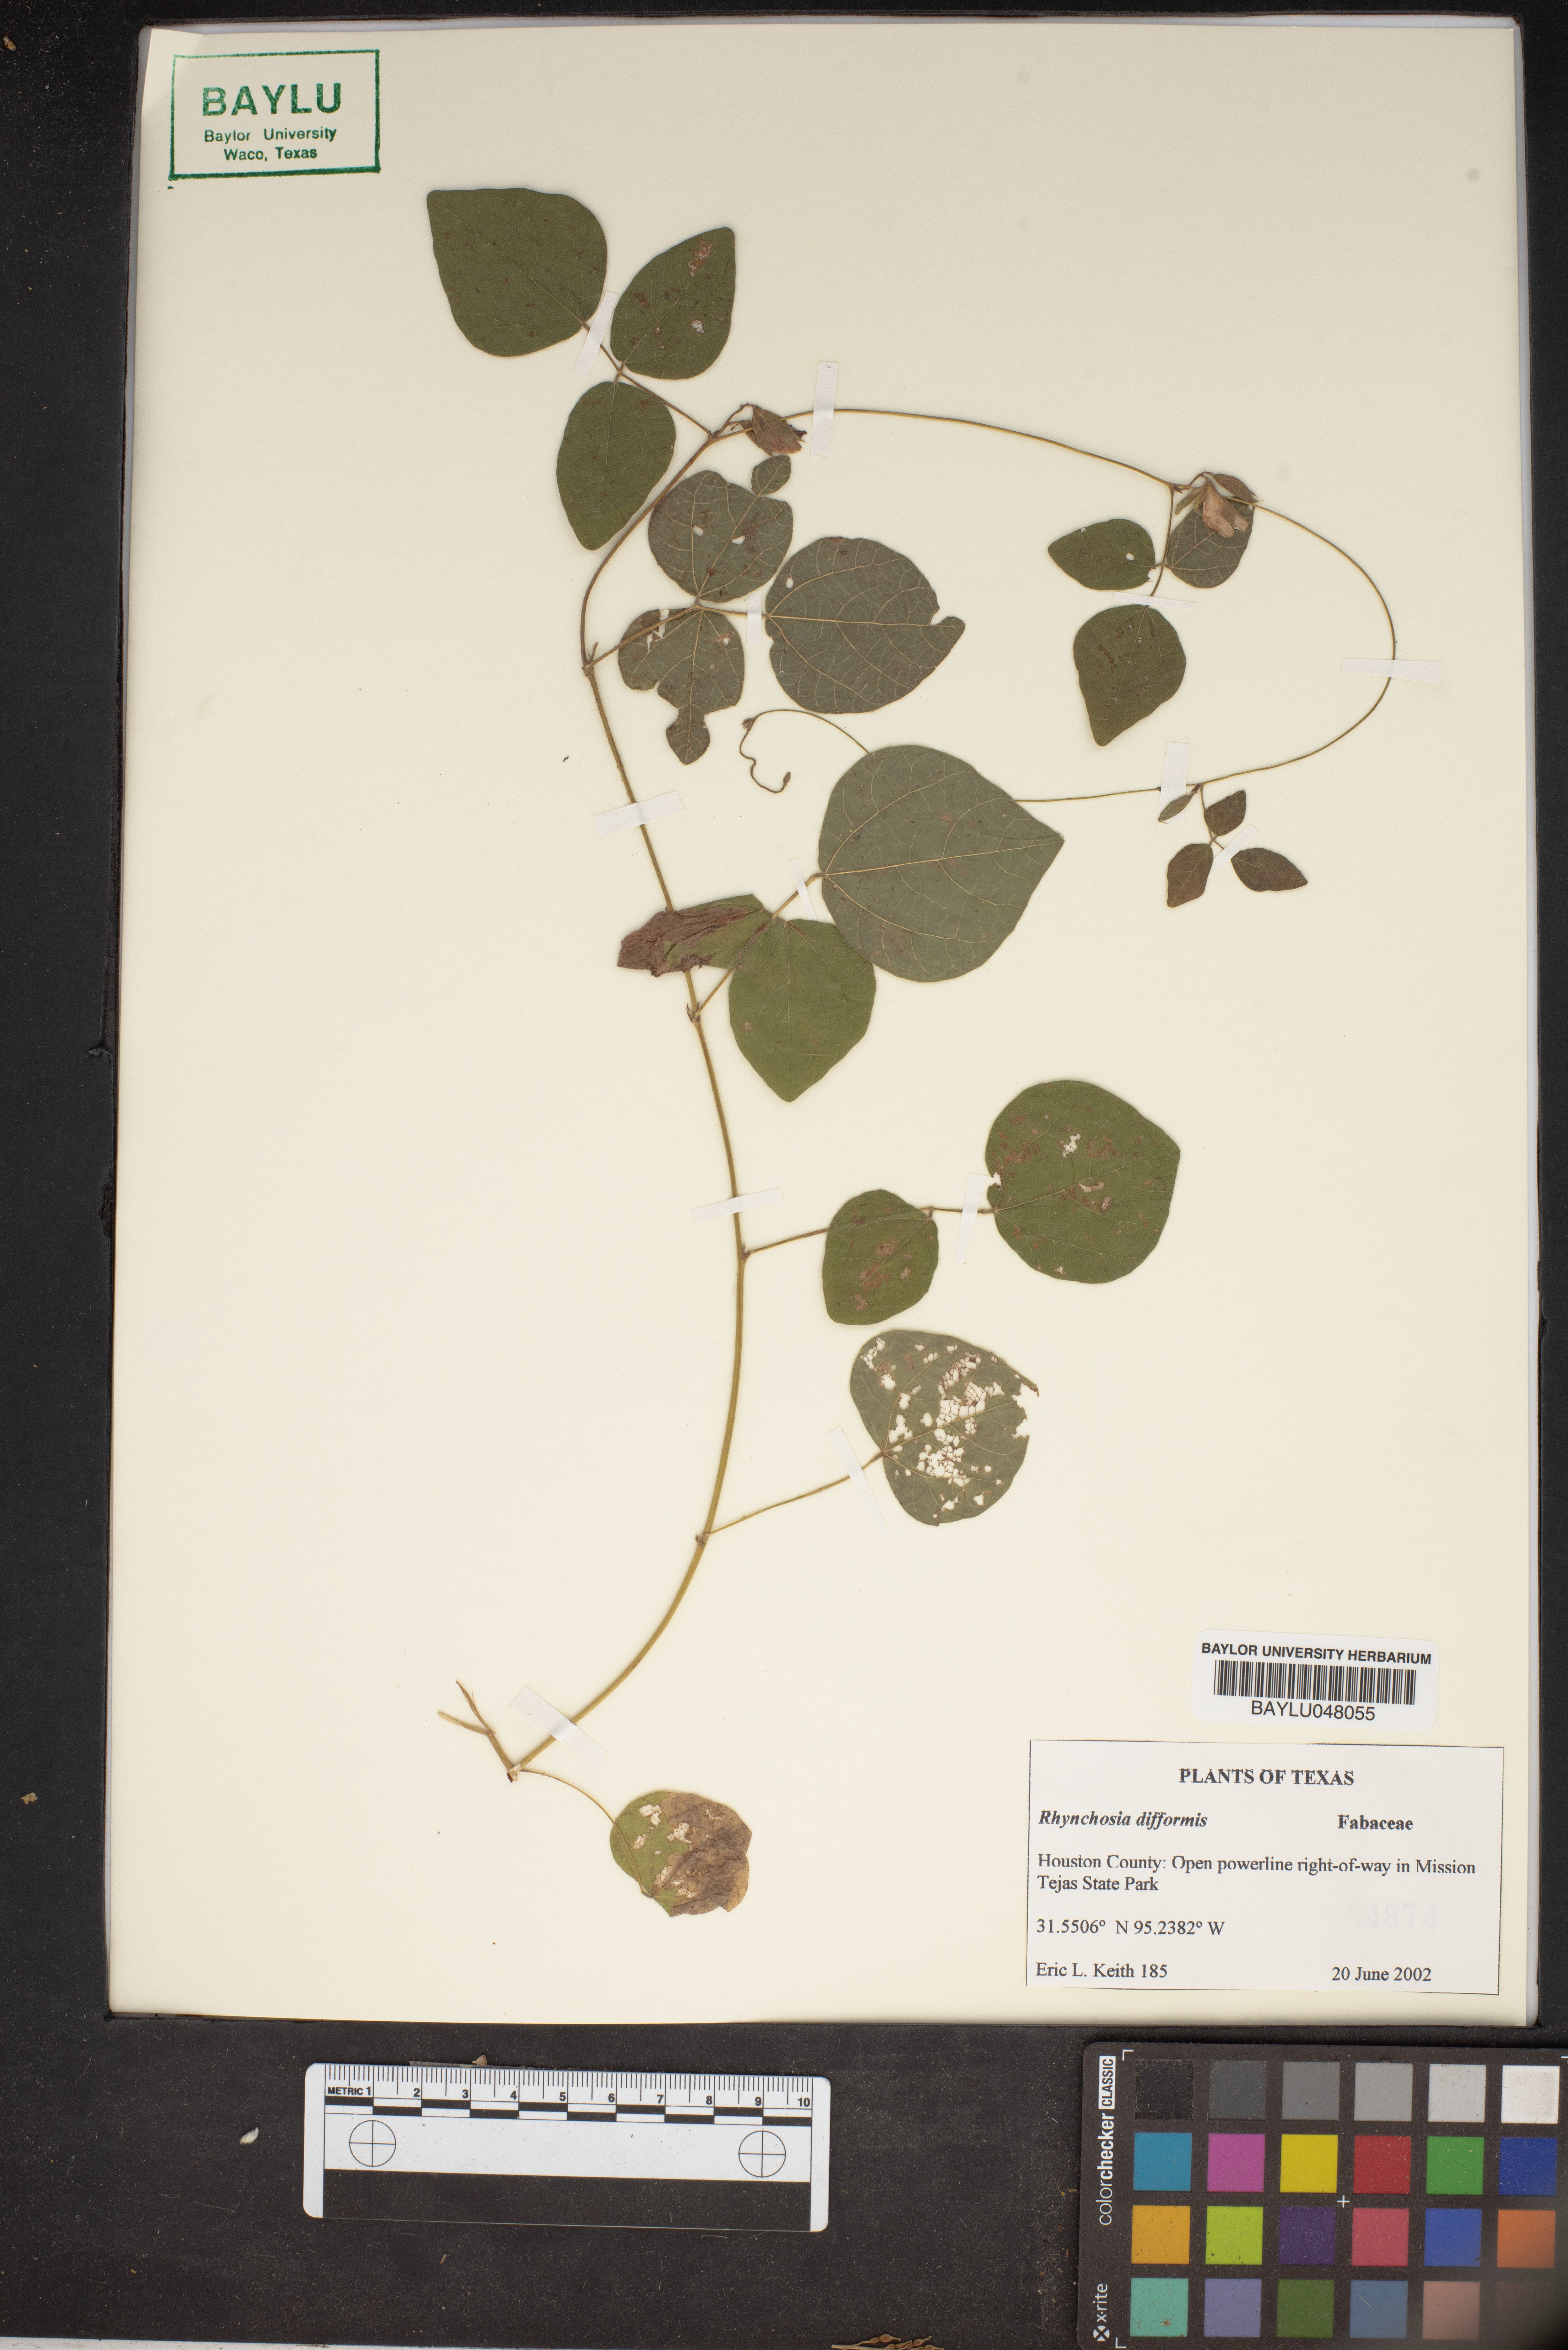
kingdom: Plantae
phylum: Tracheophyta
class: Magnoliopsida
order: Fabales
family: Fabaceae
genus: Rhynchosia
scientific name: Rhynchosia difformis
